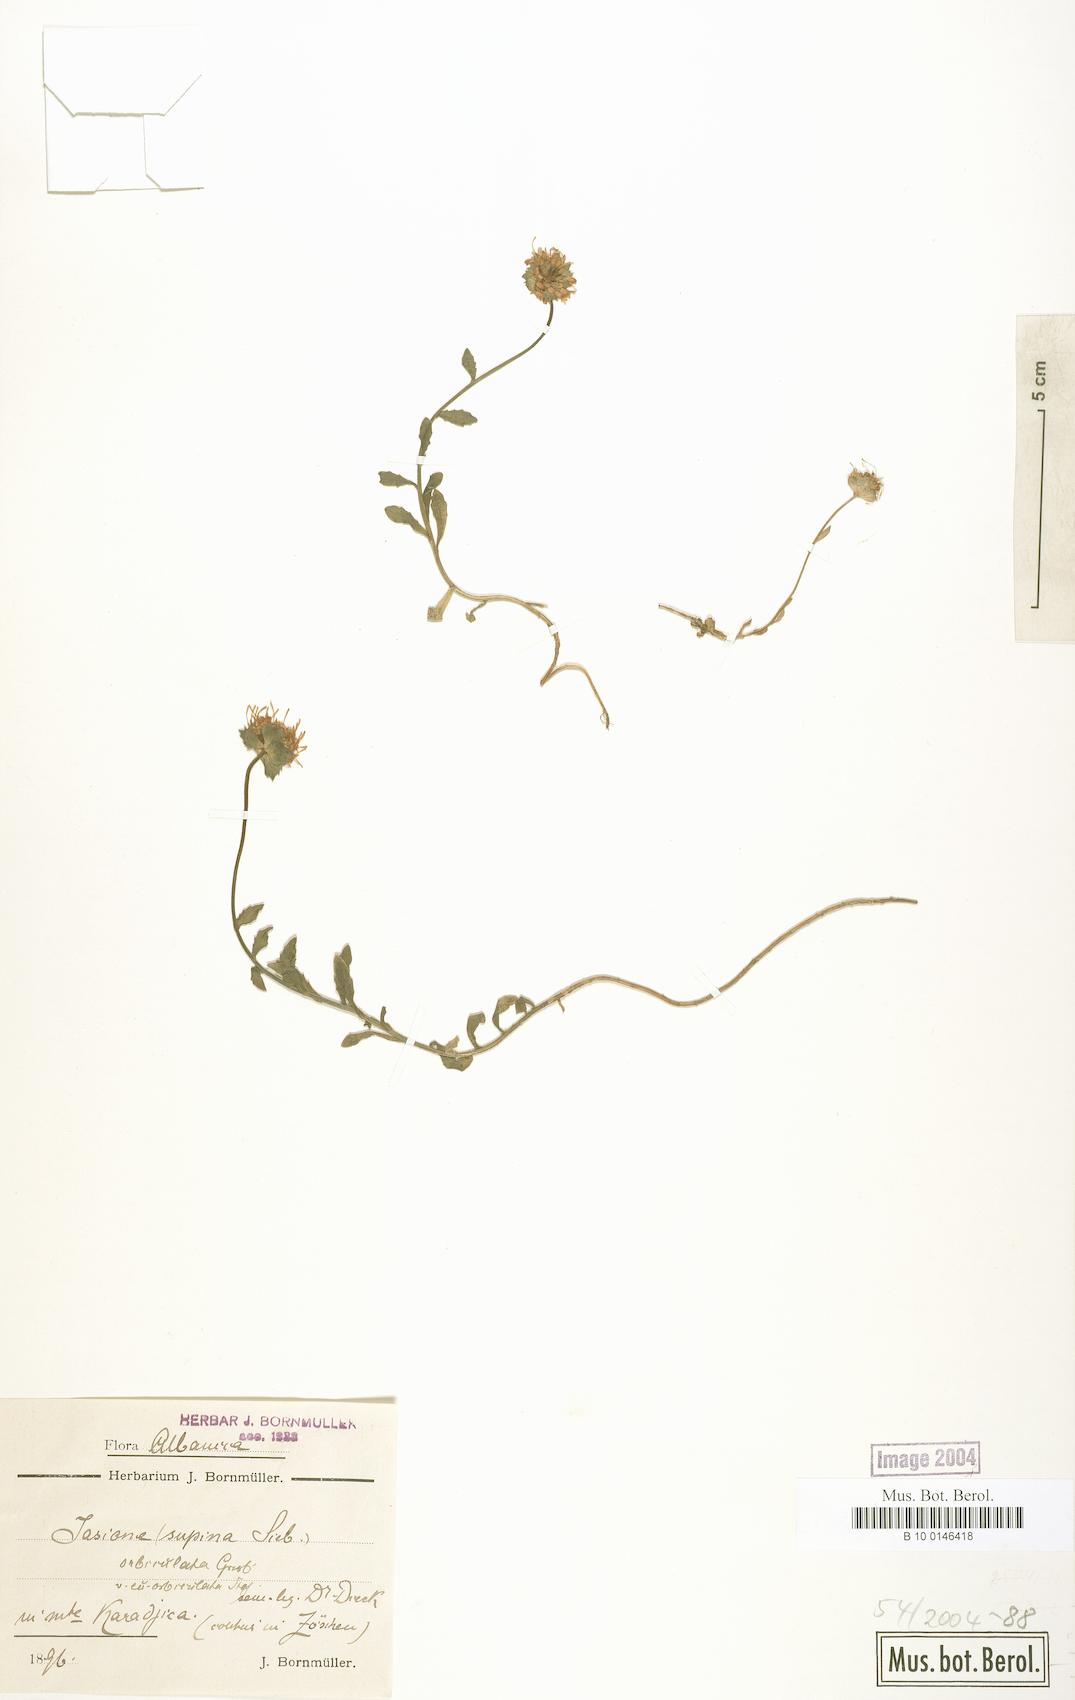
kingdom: Plantae
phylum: Tracheophyta
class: Magnoliopsida
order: Asterales
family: Campanulaceae
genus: Jasione
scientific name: Jasione orbiculata
